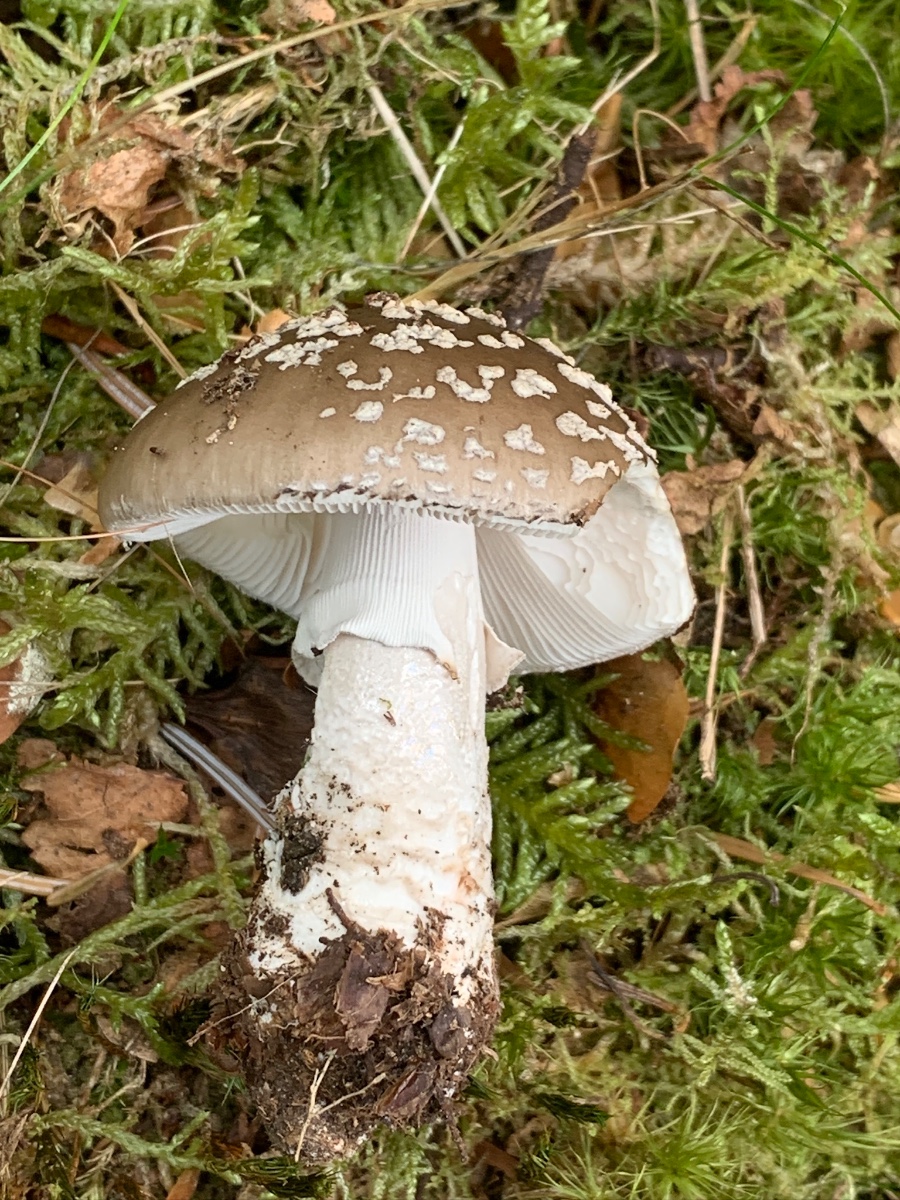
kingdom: Fungi
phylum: Basidiomycota
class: Agaricomycetes
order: Agaricales
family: Amanitaceae
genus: Amanita
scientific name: Amanita
